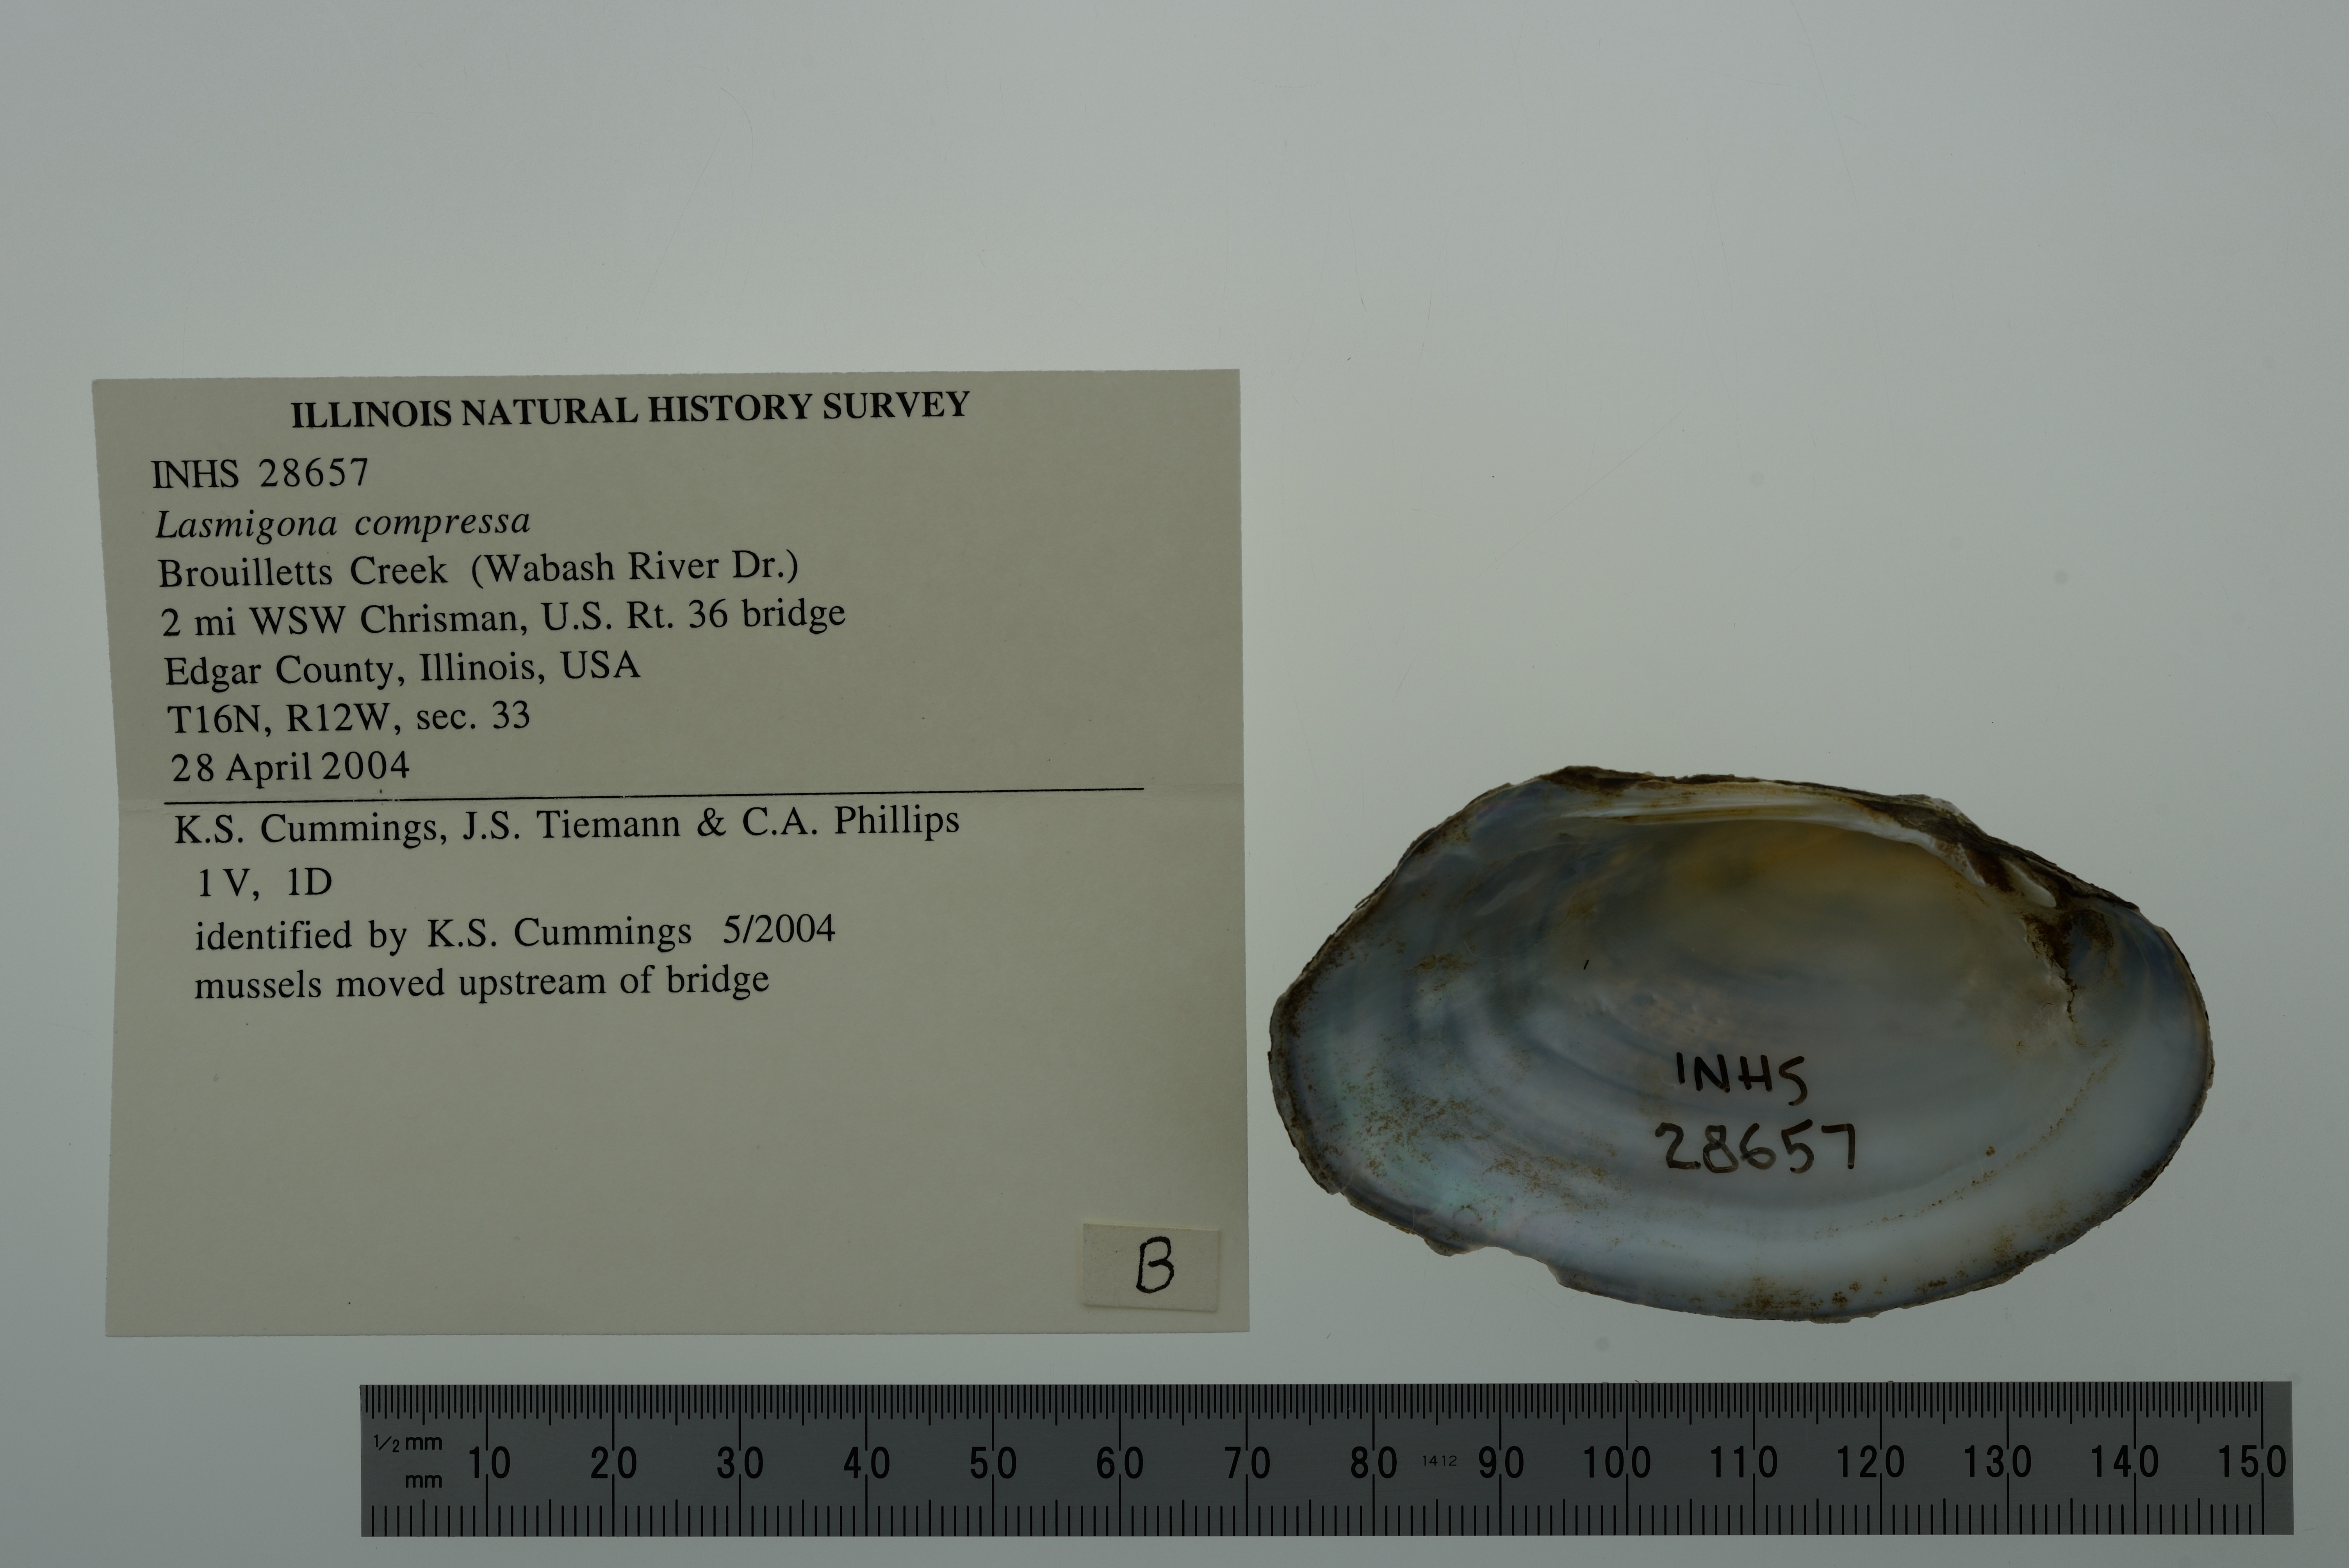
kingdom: Animalia
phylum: Mollusca
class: Bivalvia
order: Unionida
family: Unionidae
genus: Lasmigona
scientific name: Lasmigona compressa
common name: Creek heelsplitter
